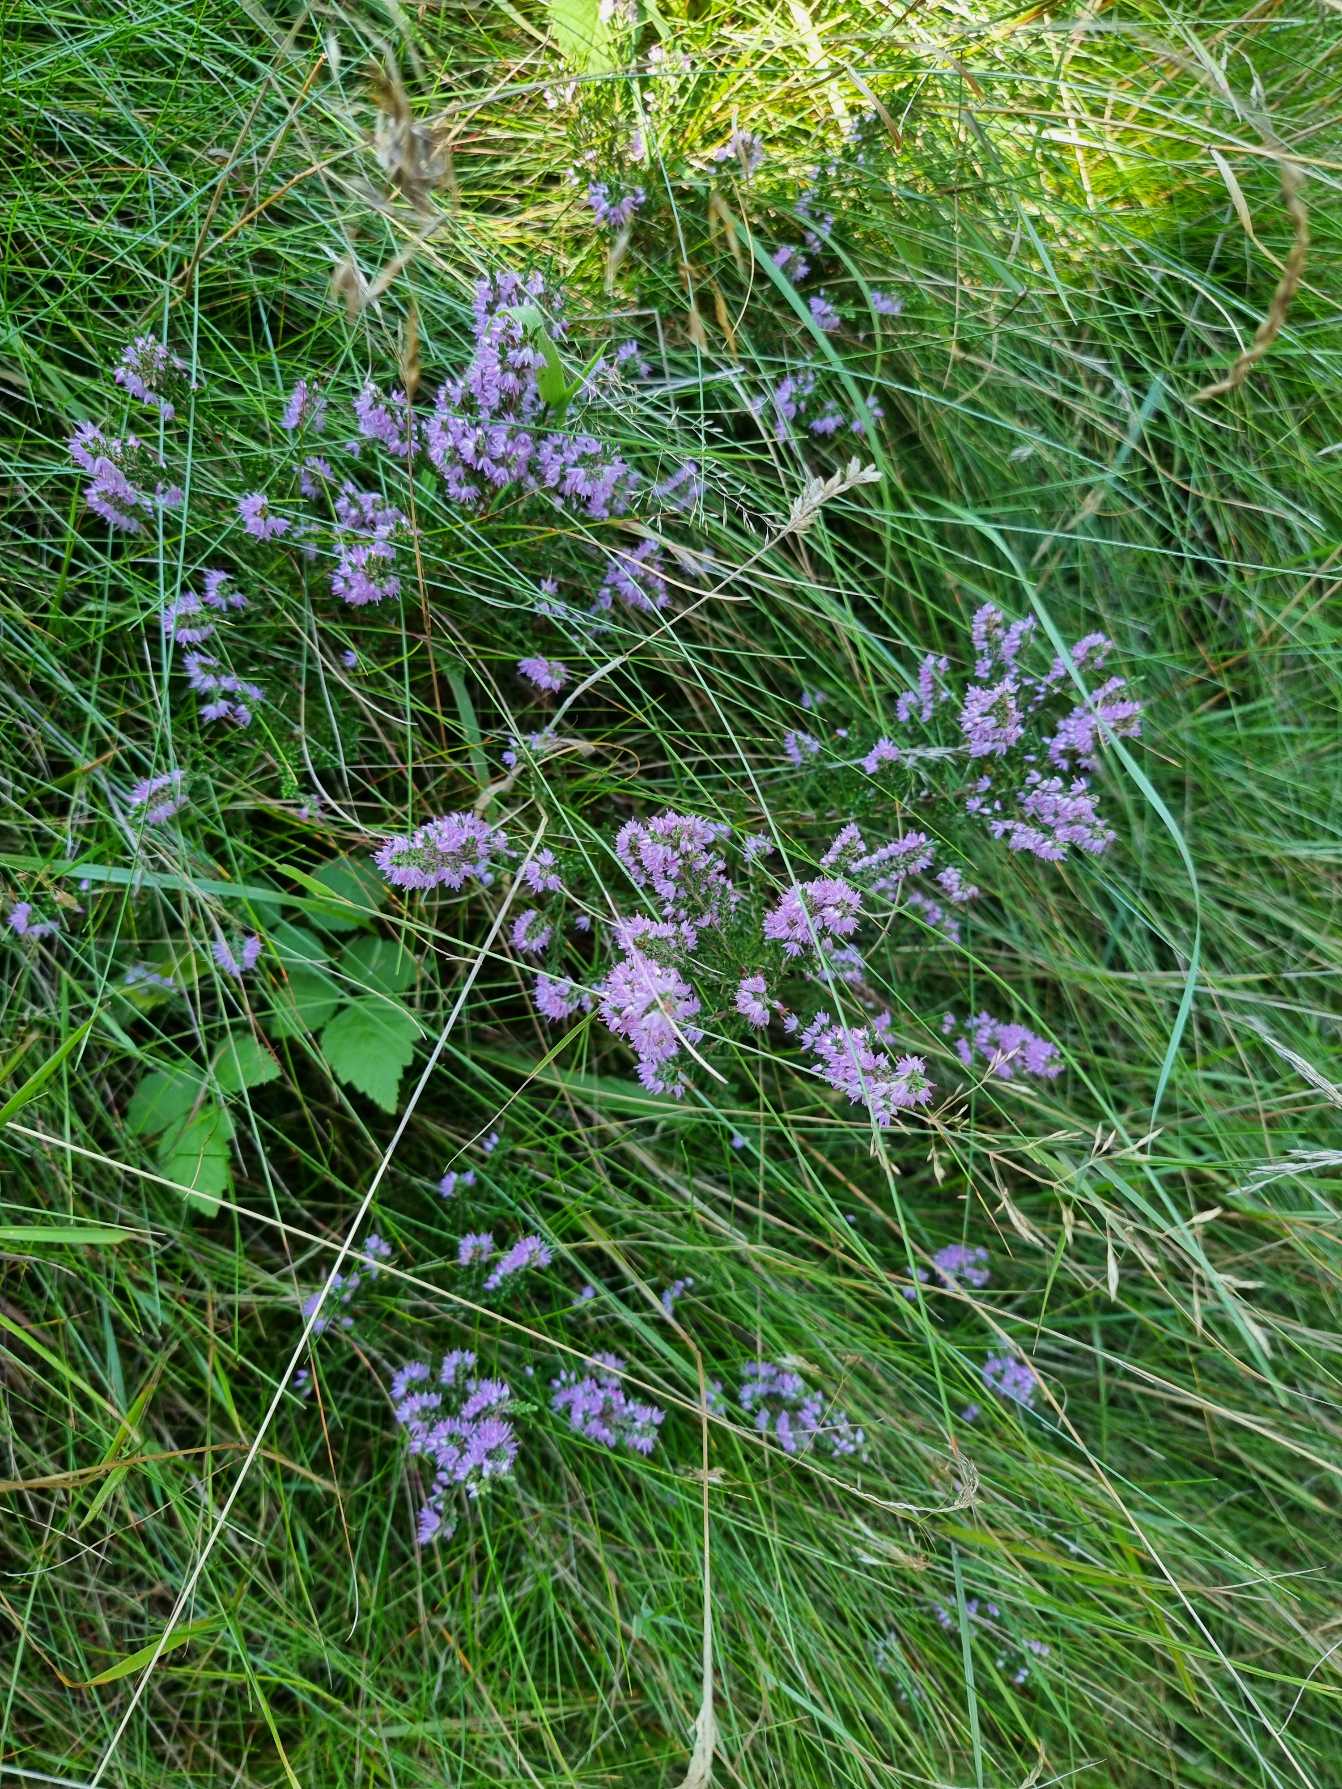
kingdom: Plantae
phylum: Tracheophyta
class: Magnoliopsida
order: Ericales
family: Ericaceae
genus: Calluna
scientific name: Calluna vulgaris
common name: Hedelyng
